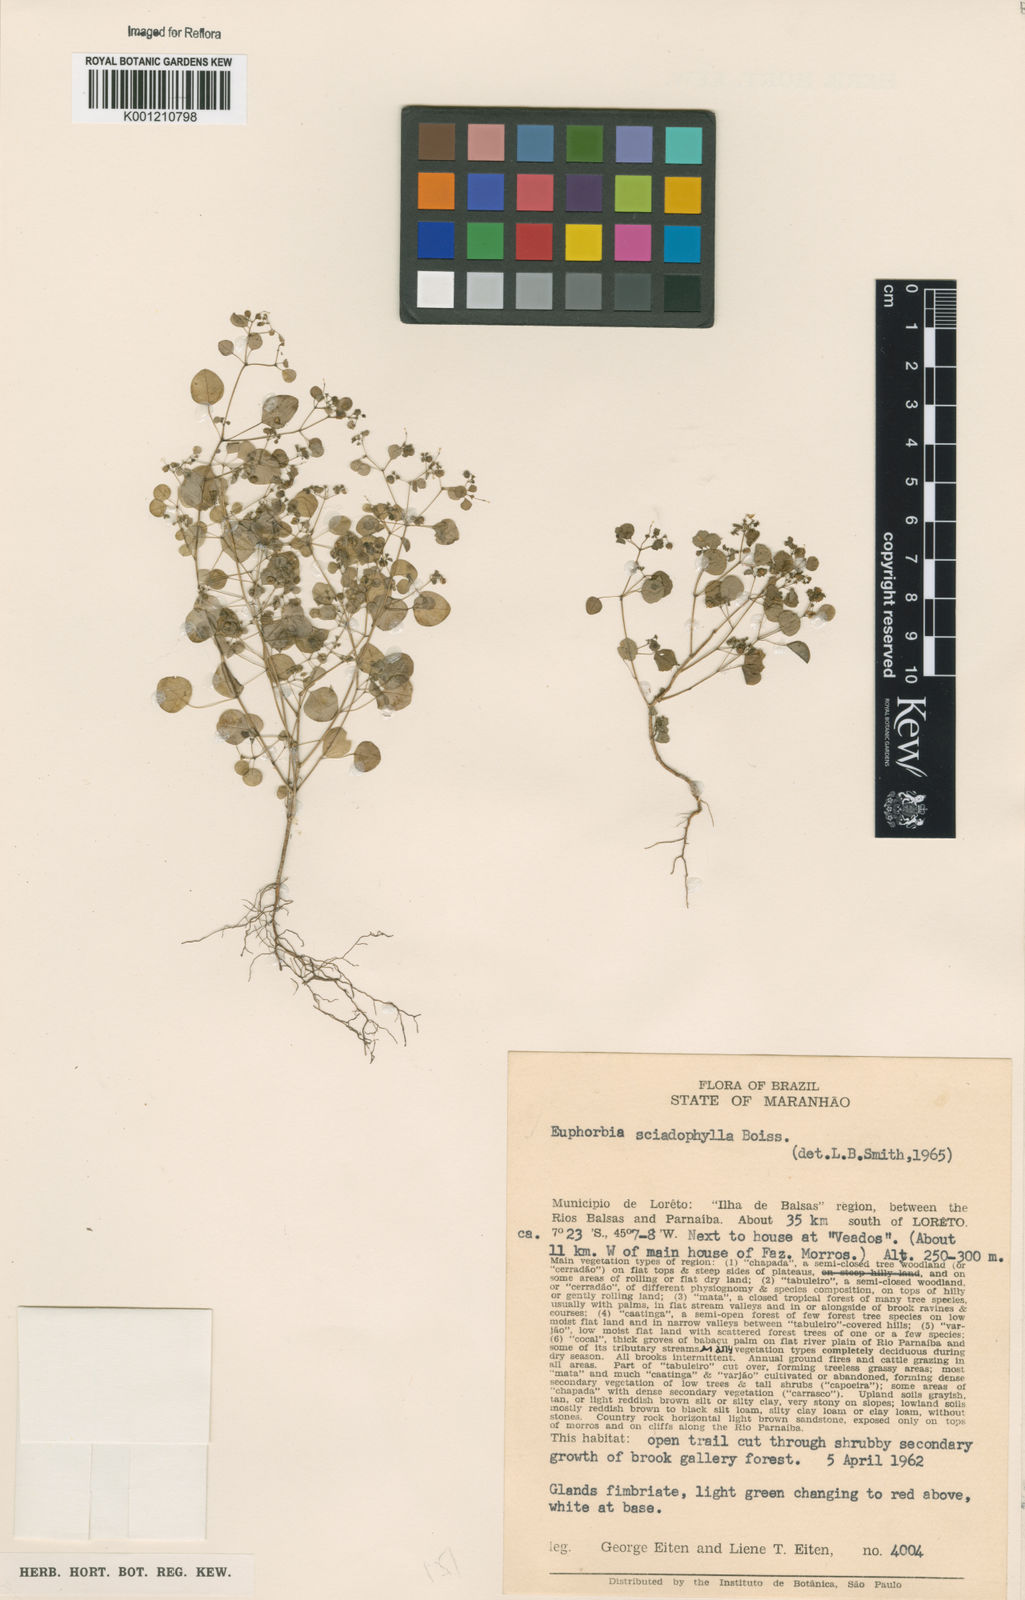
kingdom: Plantae
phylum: Tracheophyta
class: Magnoliopsida
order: Malpighiales
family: Euphorbiaceae
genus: Euphorbia
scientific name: Euphorbia sciadophila
